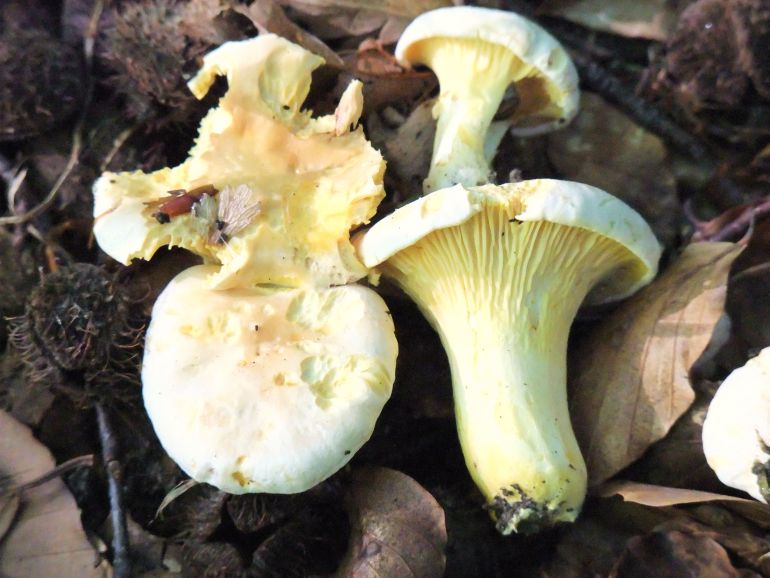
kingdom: Fungi
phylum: Basidiomycota
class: Agaricomycetes
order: Cantharellales
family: Hydnaceae
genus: Cantharellus
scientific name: Cantharellus pallens
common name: bleg kantarel
